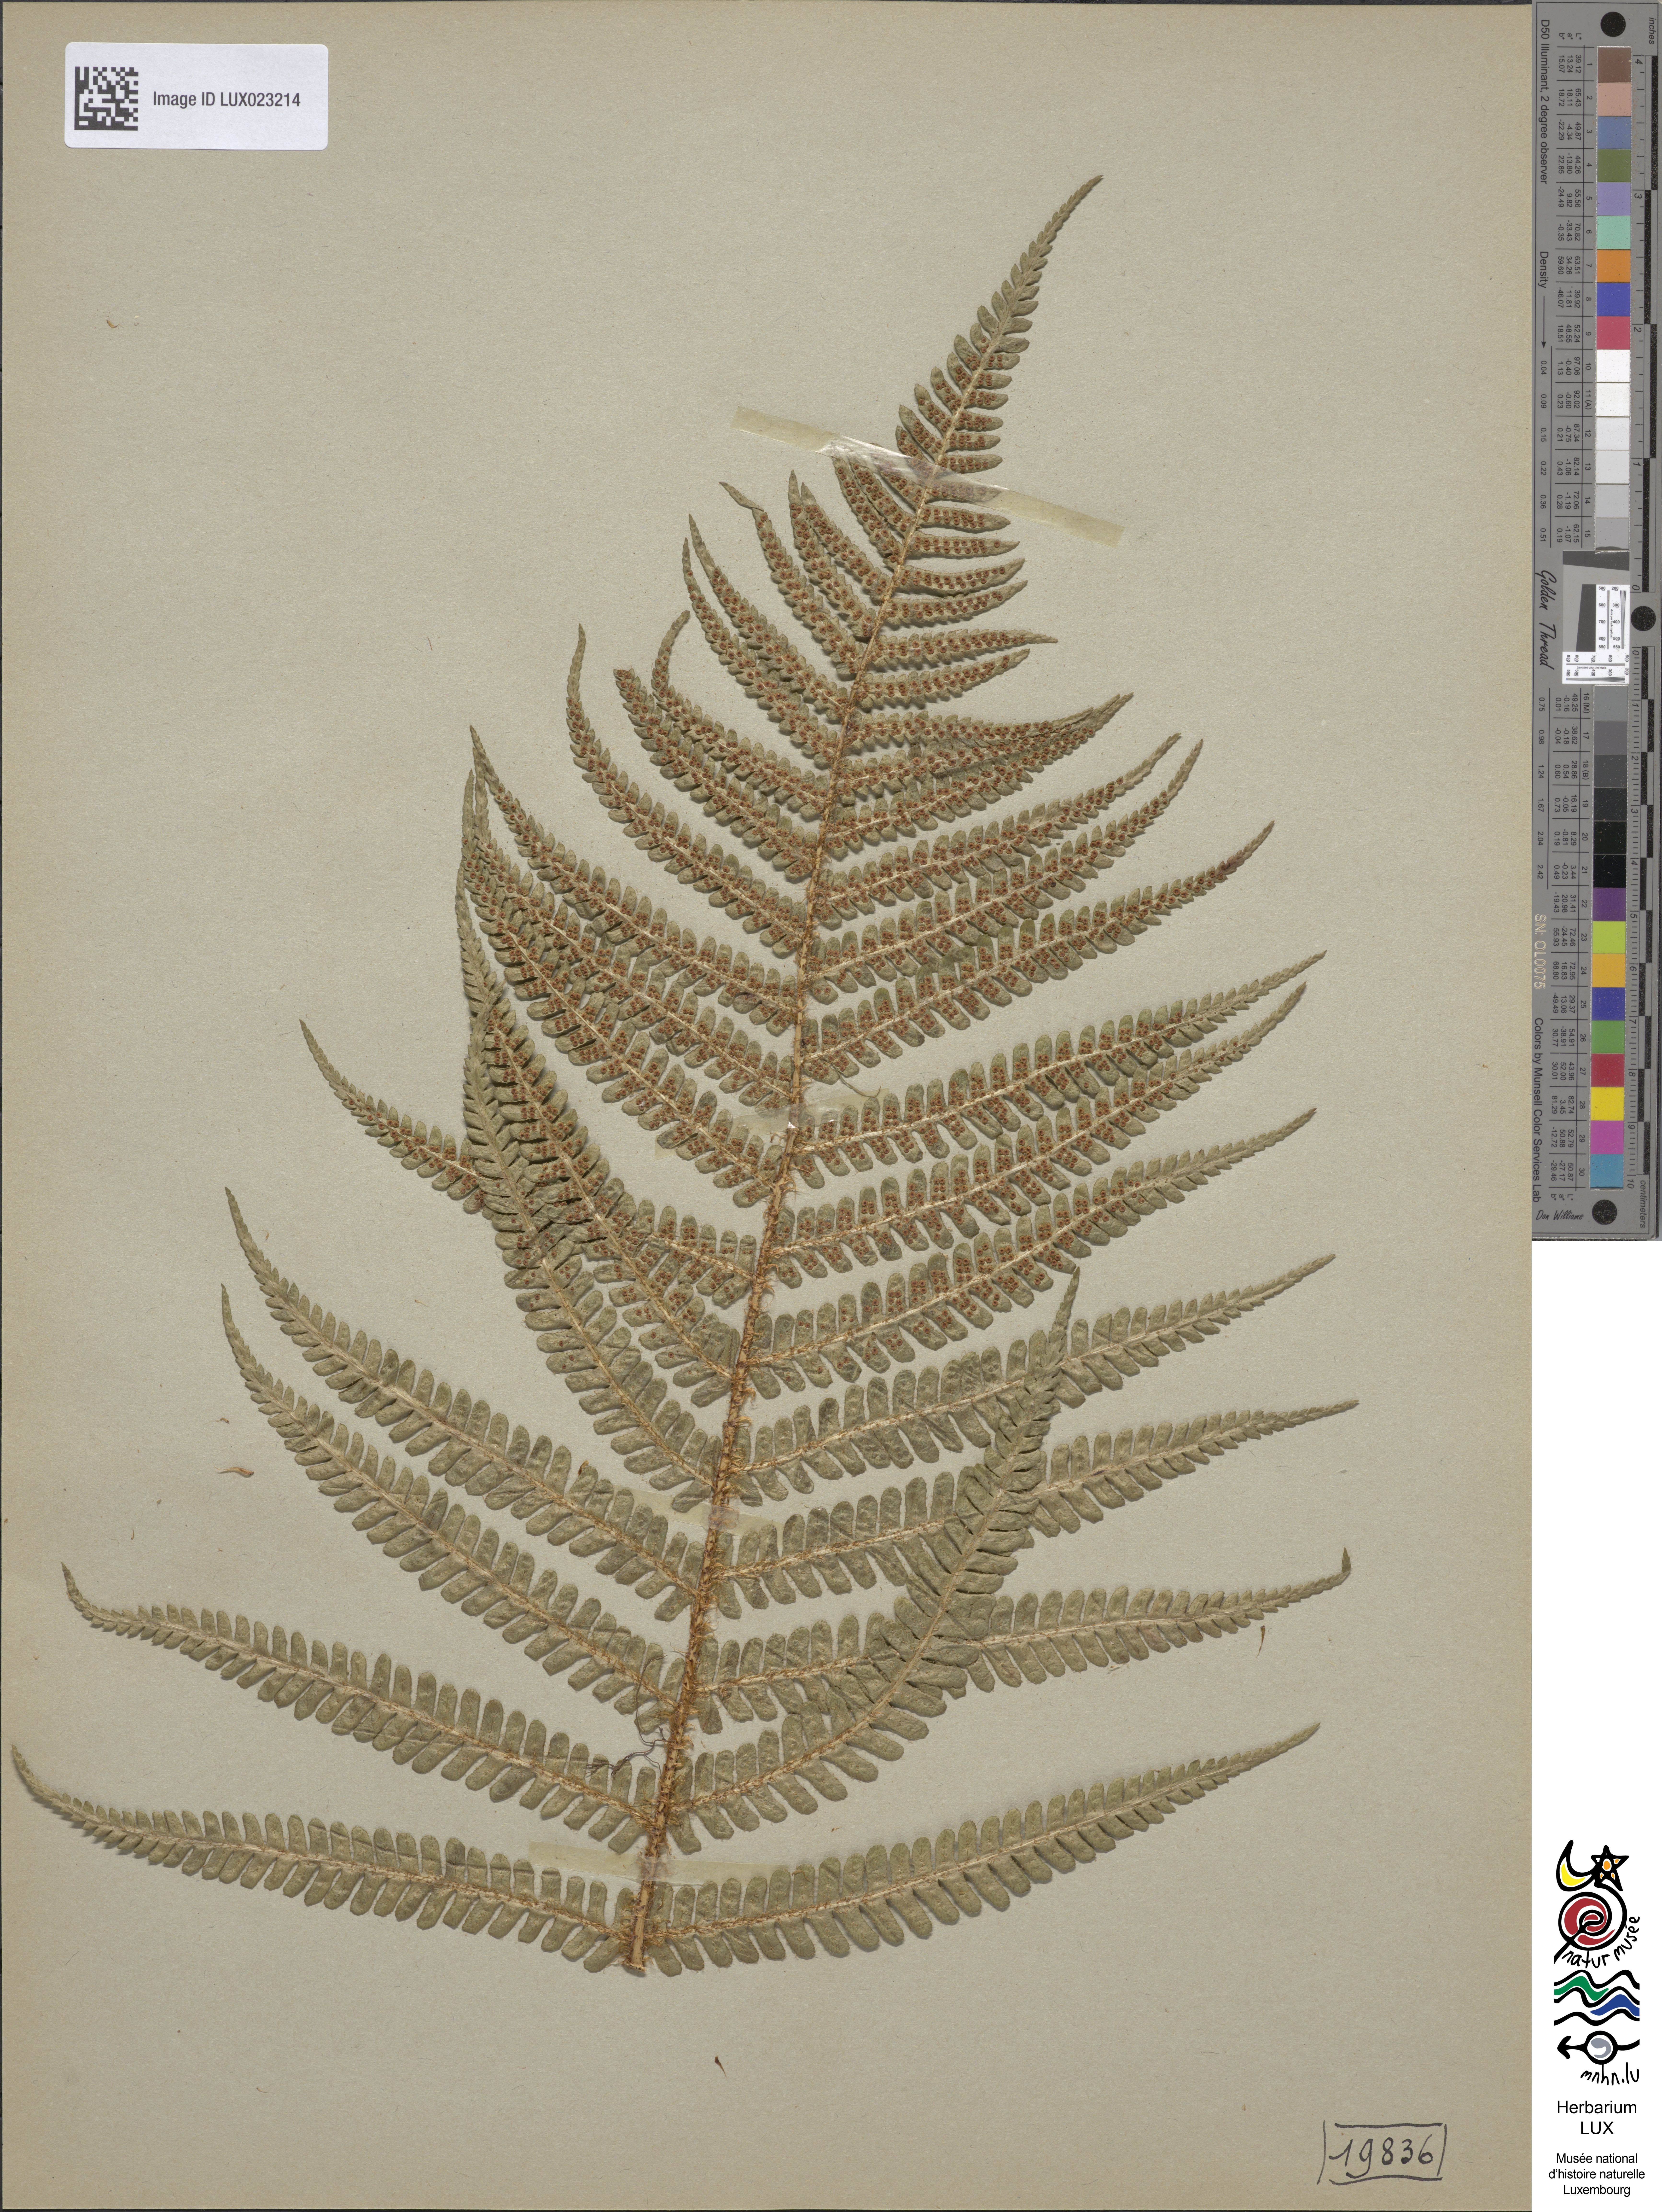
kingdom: Plantae
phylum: Tracheophyta
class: Polypodiopsida
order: Polypodiales
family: Dryopteridaceae
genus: Dryopteris
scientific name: Dryopteris paleacea
